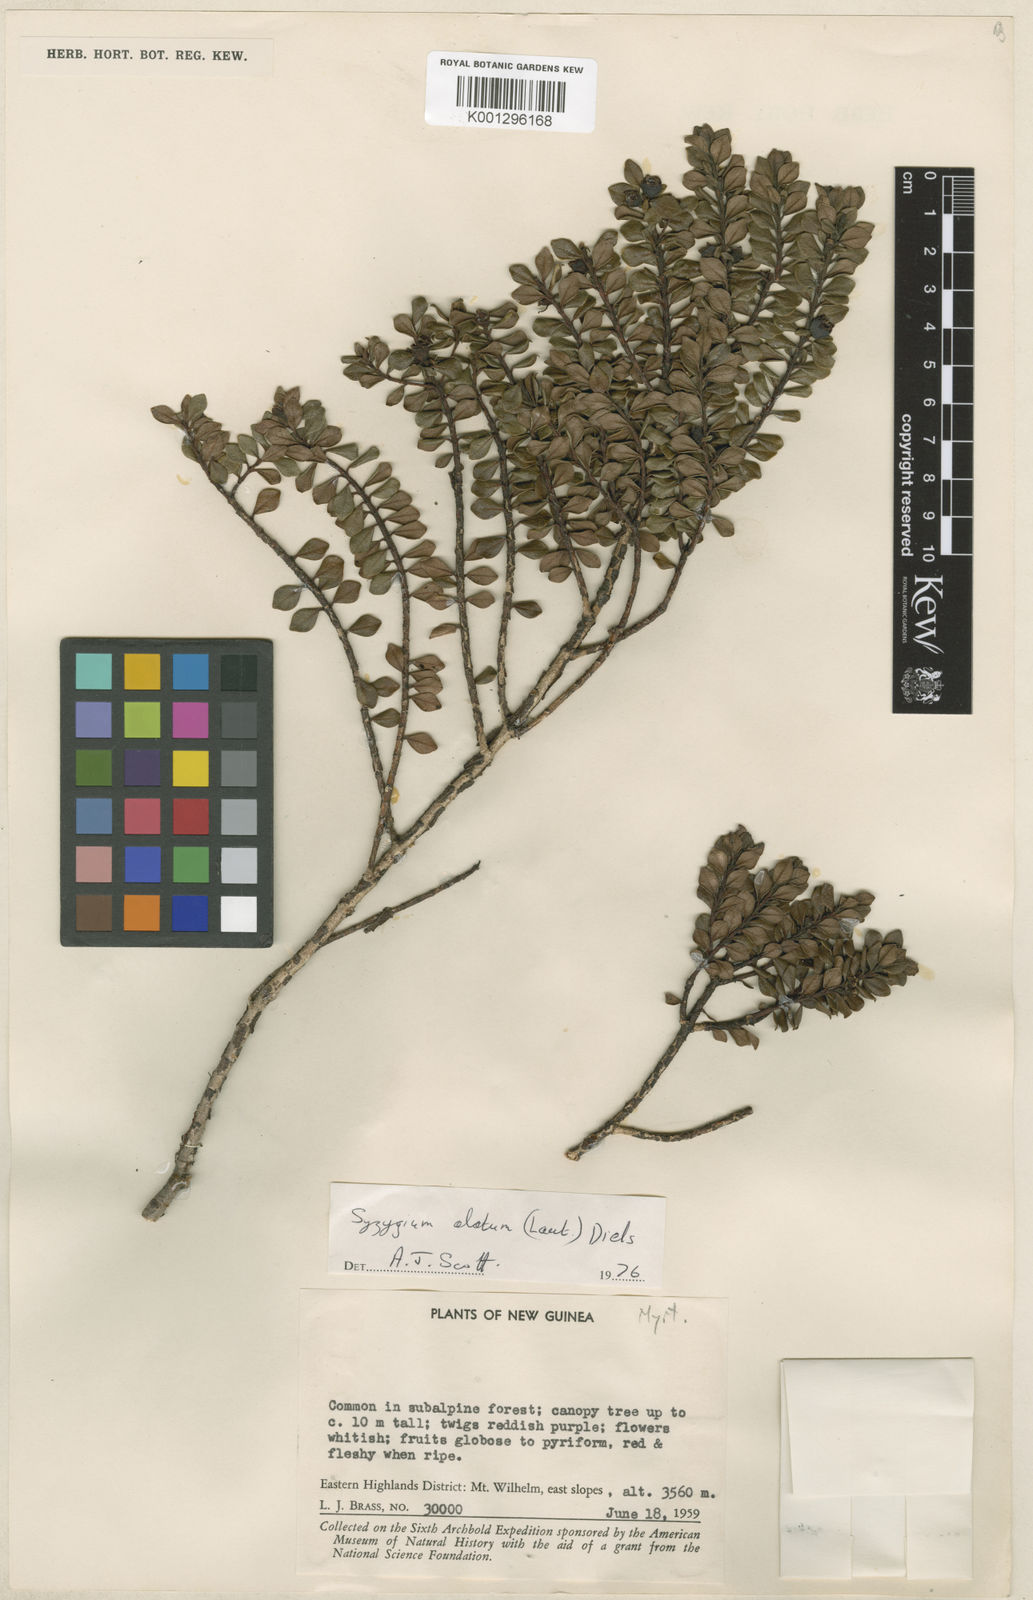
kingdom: Plantae
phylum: Tracheophyta
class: Magnoliopsida
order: Myrtales
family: Myrtaceae
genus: Syzygium
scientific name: Syzygium alatum
